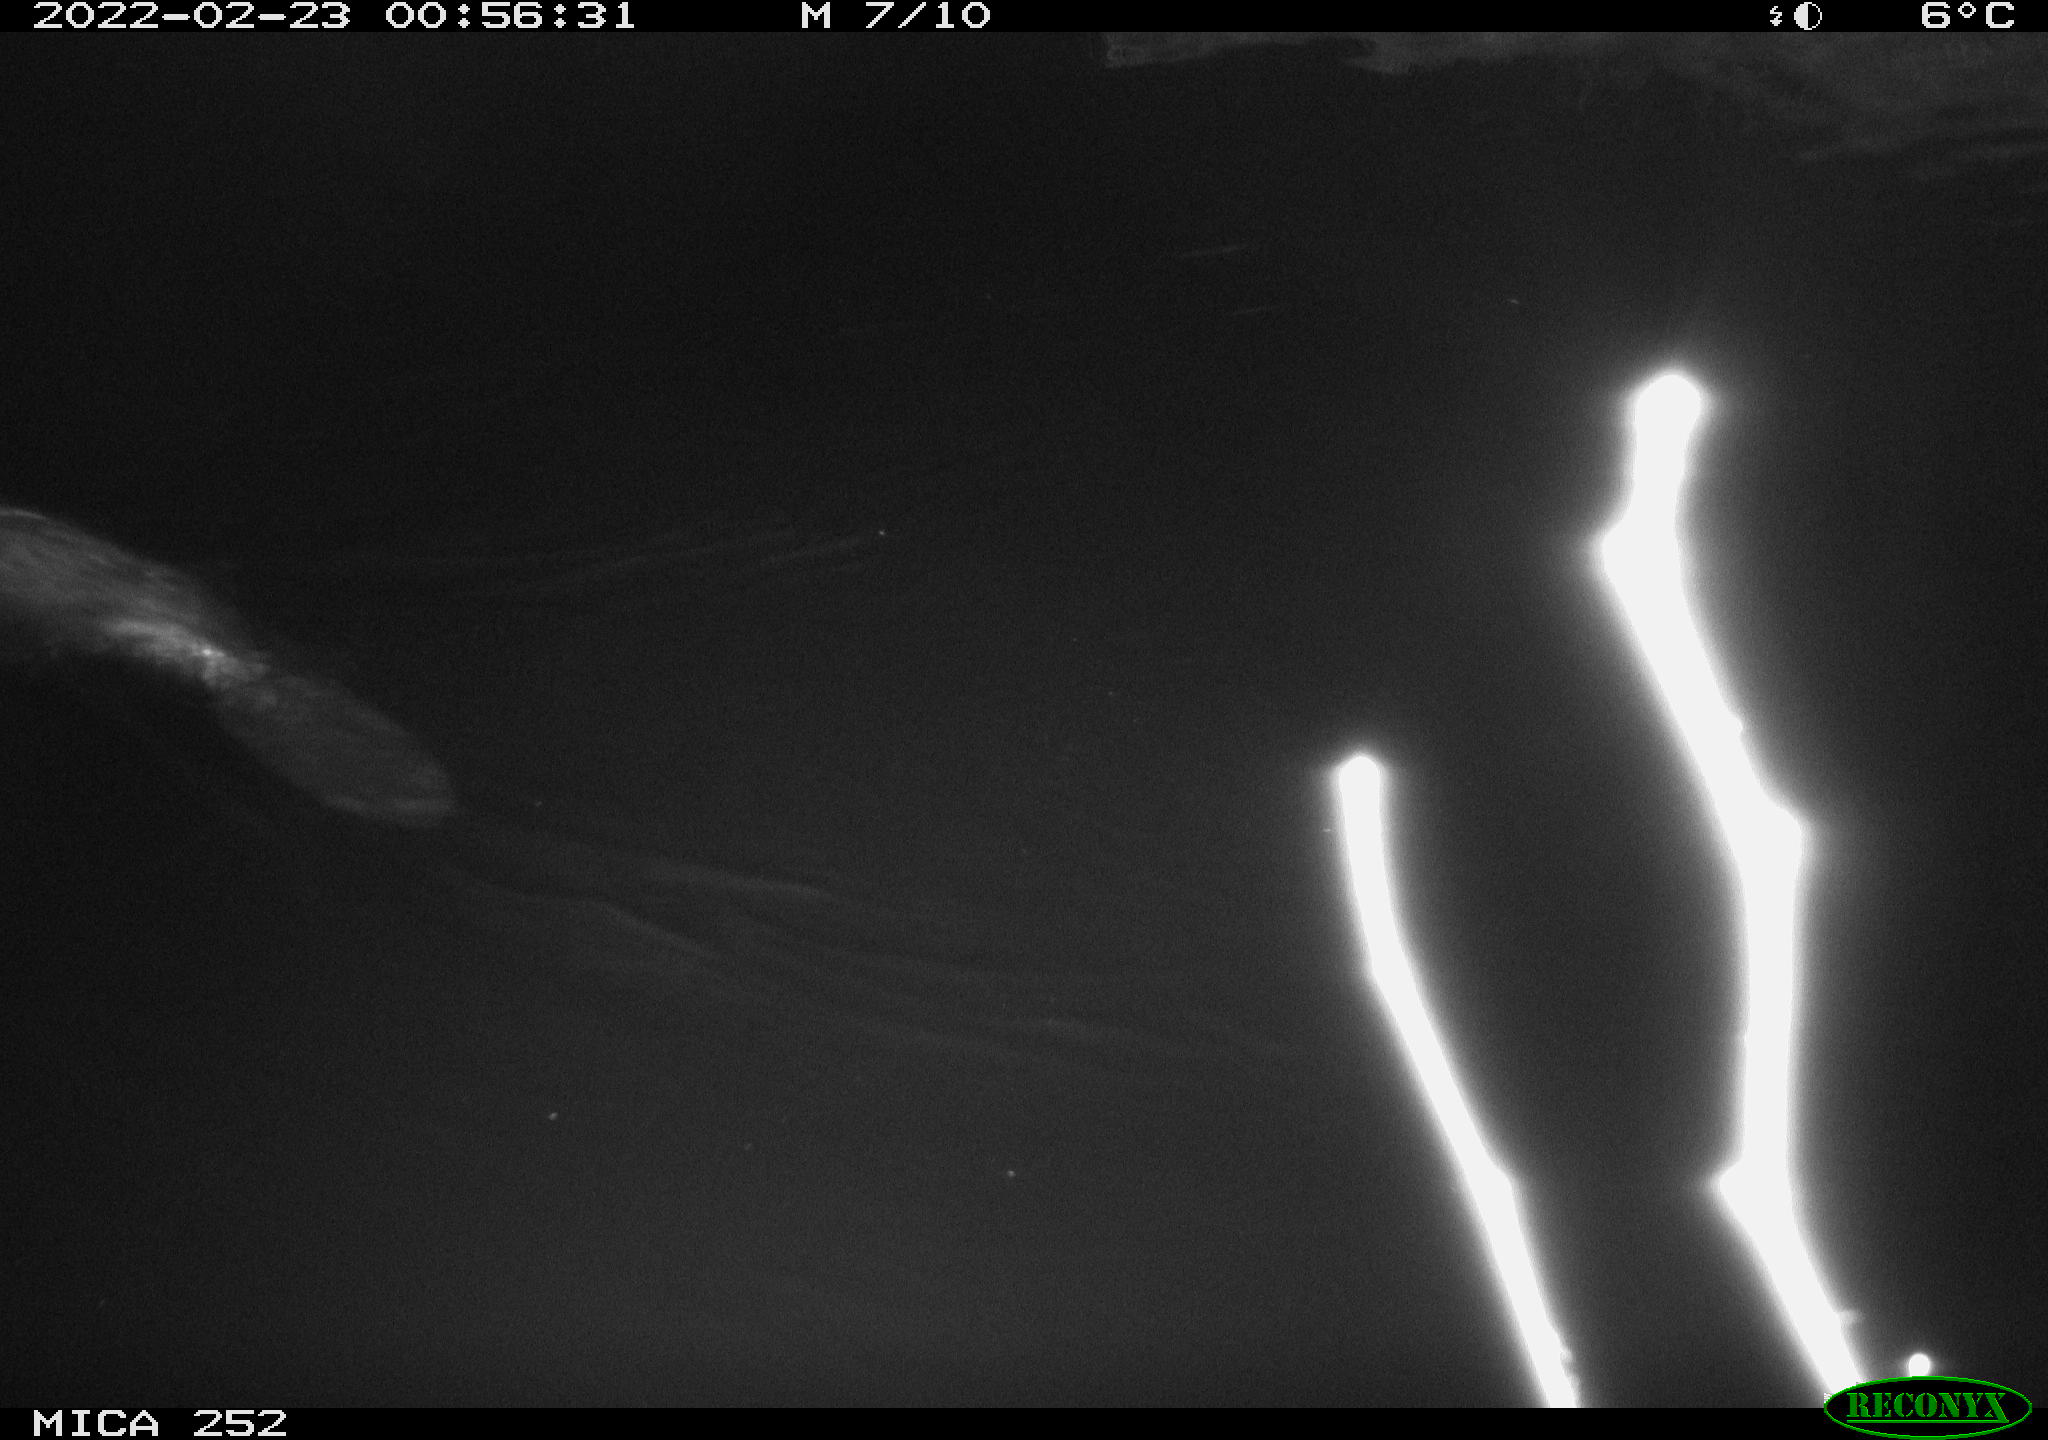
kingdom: Animalia
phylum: Chordata
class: Mammalia
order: Rodentia
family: Castoridae
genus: Castor
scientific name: Castor fiber
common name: Eurasian beaver
